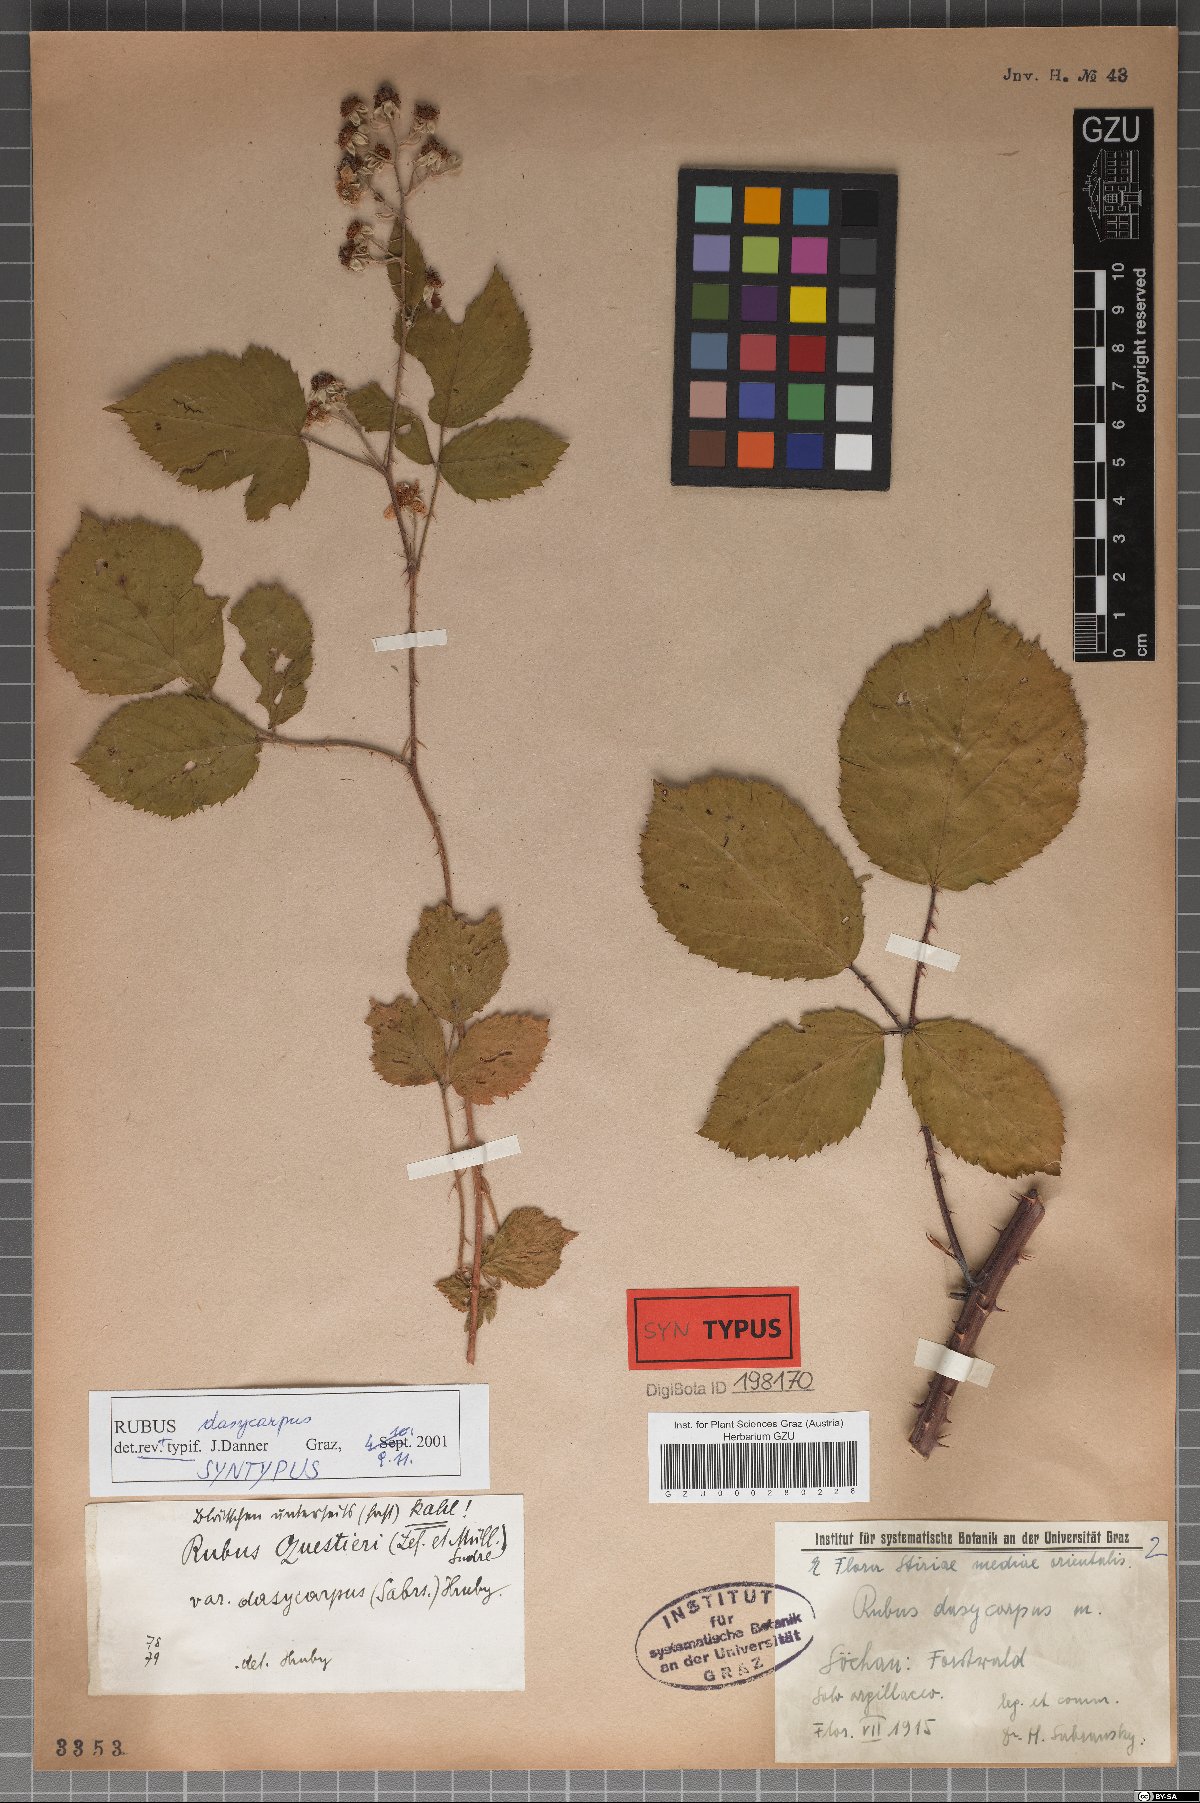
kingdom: Plantae
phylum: Tracheophyta
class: Magnoliopsida
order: Rosales
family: Rosaceae
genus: Rubus
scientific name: Rubus thelybatos
